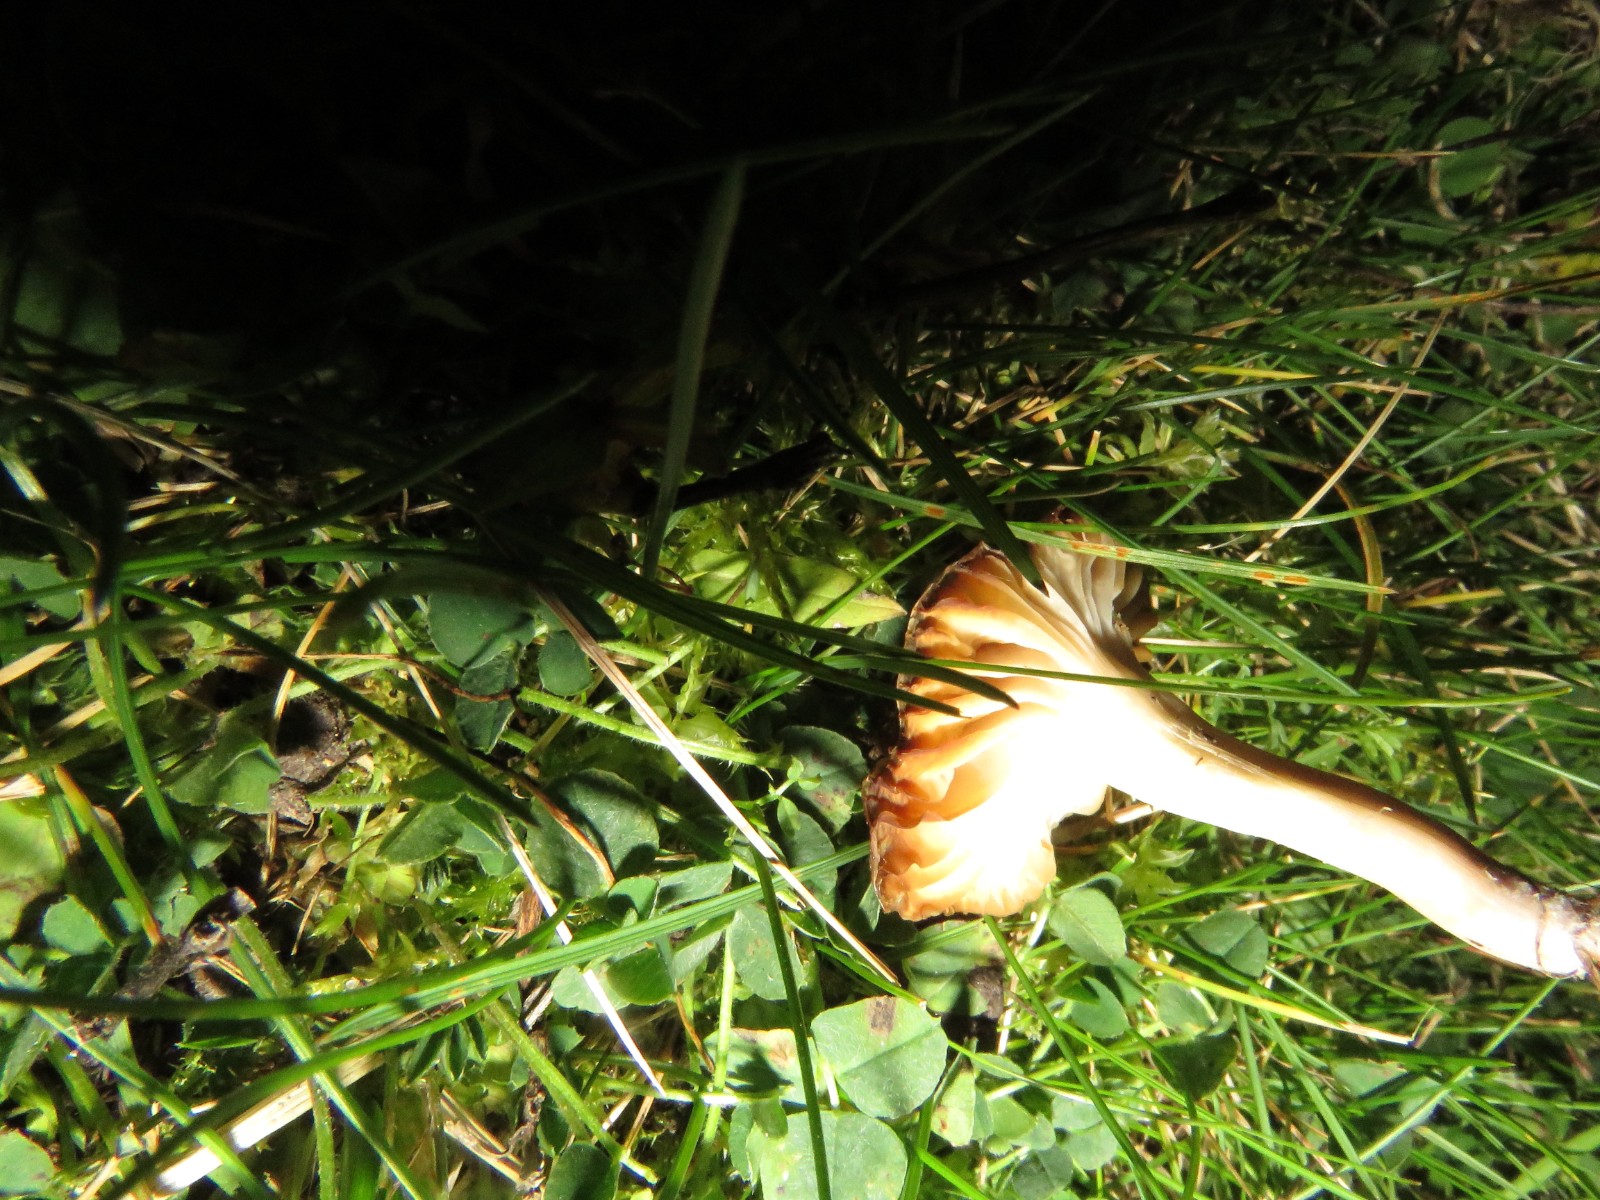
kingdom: Fungi
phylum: Basidiomycota
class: Agaricomycetes
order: Agaricales
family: Hygrophoraceae
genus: Cuphophyllus
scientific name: Cuphophyllus virgineus
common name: snehvid vokshat
